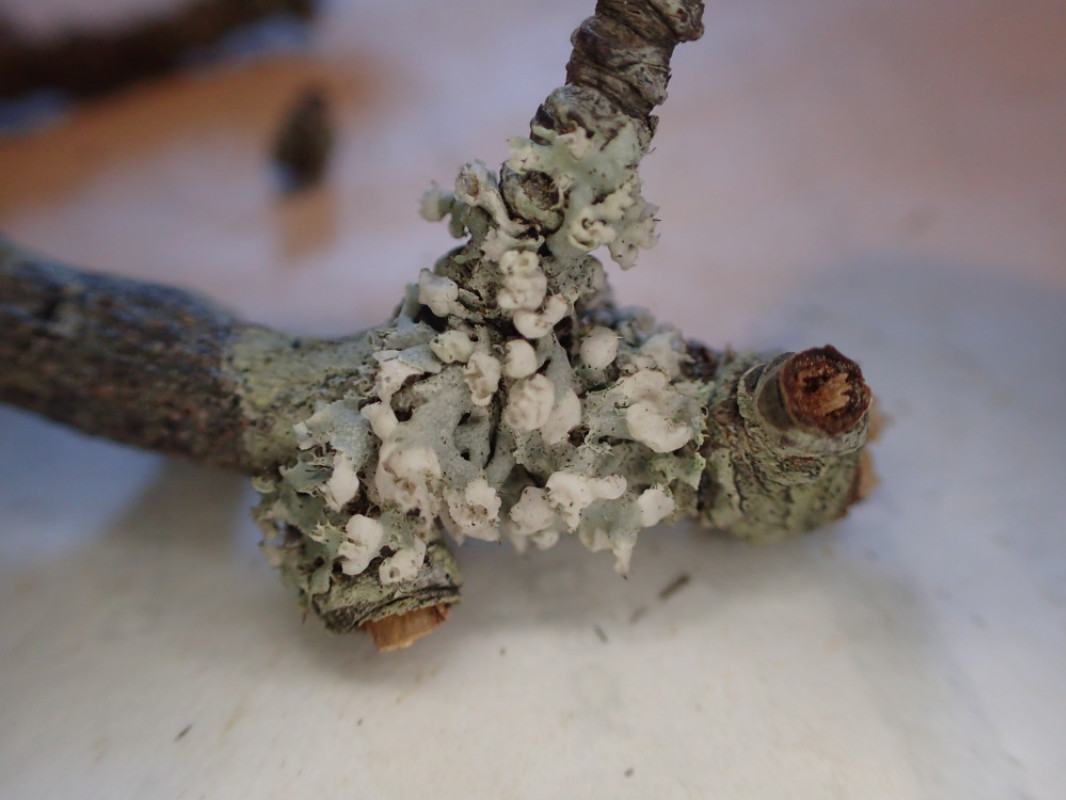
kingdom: Fungi
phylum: Ascomycota
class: Lecanoromycetes
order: Caliciales
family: Physciaceae
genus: Physcia
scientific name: Physcia adscendens
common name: hætte-rosetlav
